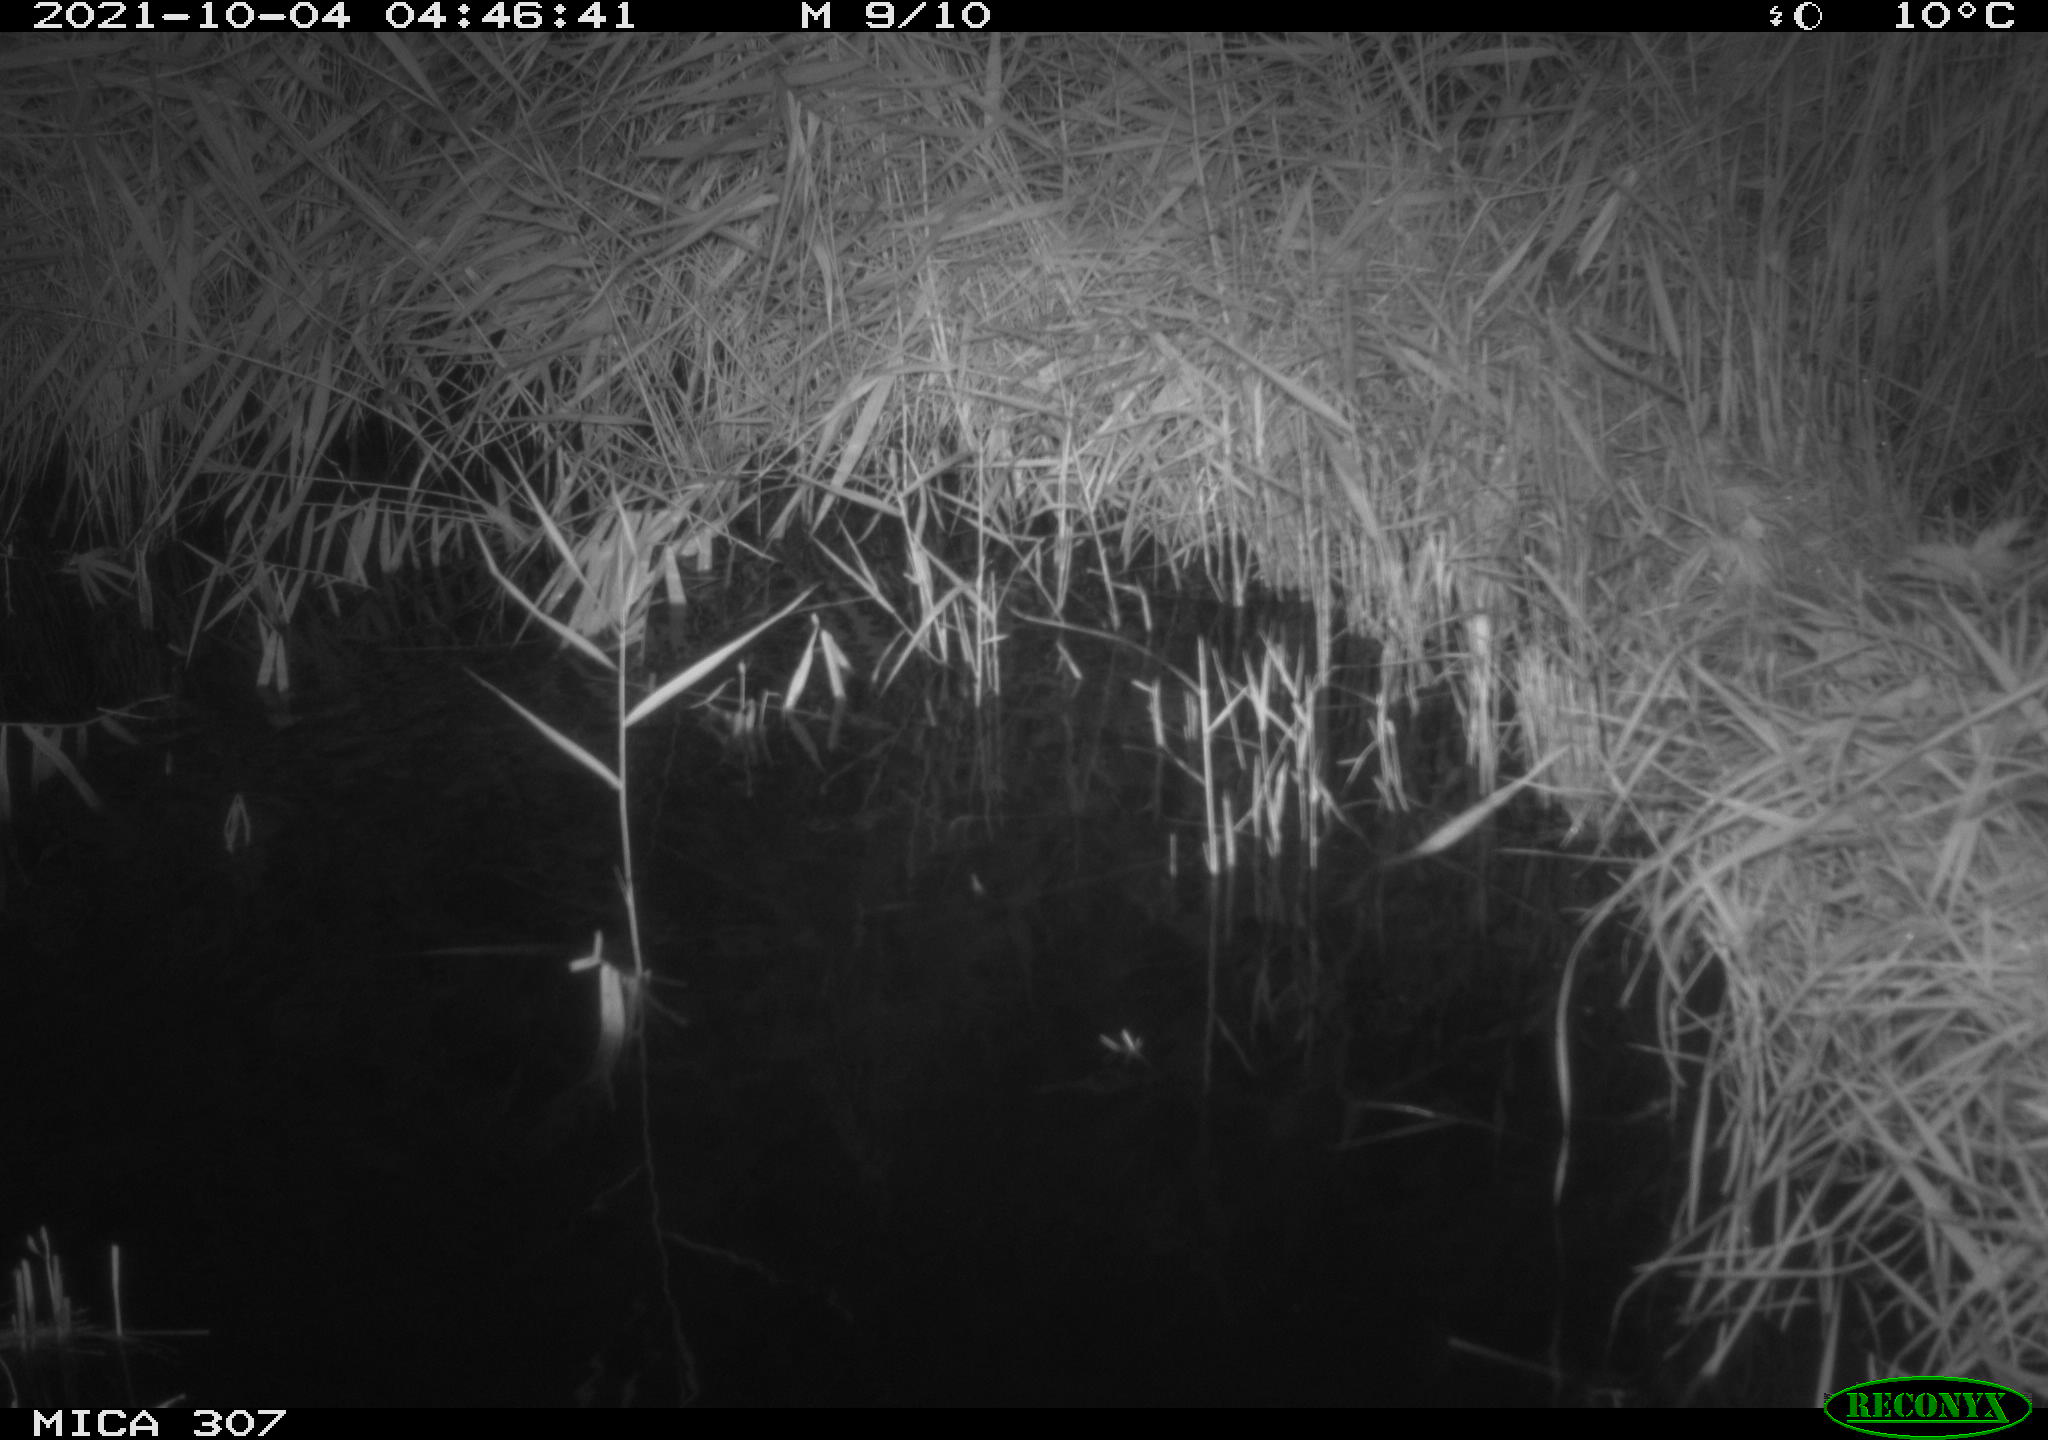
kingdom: Animalia
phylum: Chordata
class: Mammalia
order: Rodentia
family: Muridae
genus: Rattus
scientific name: Rattus norvegicus
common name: Brown rat
